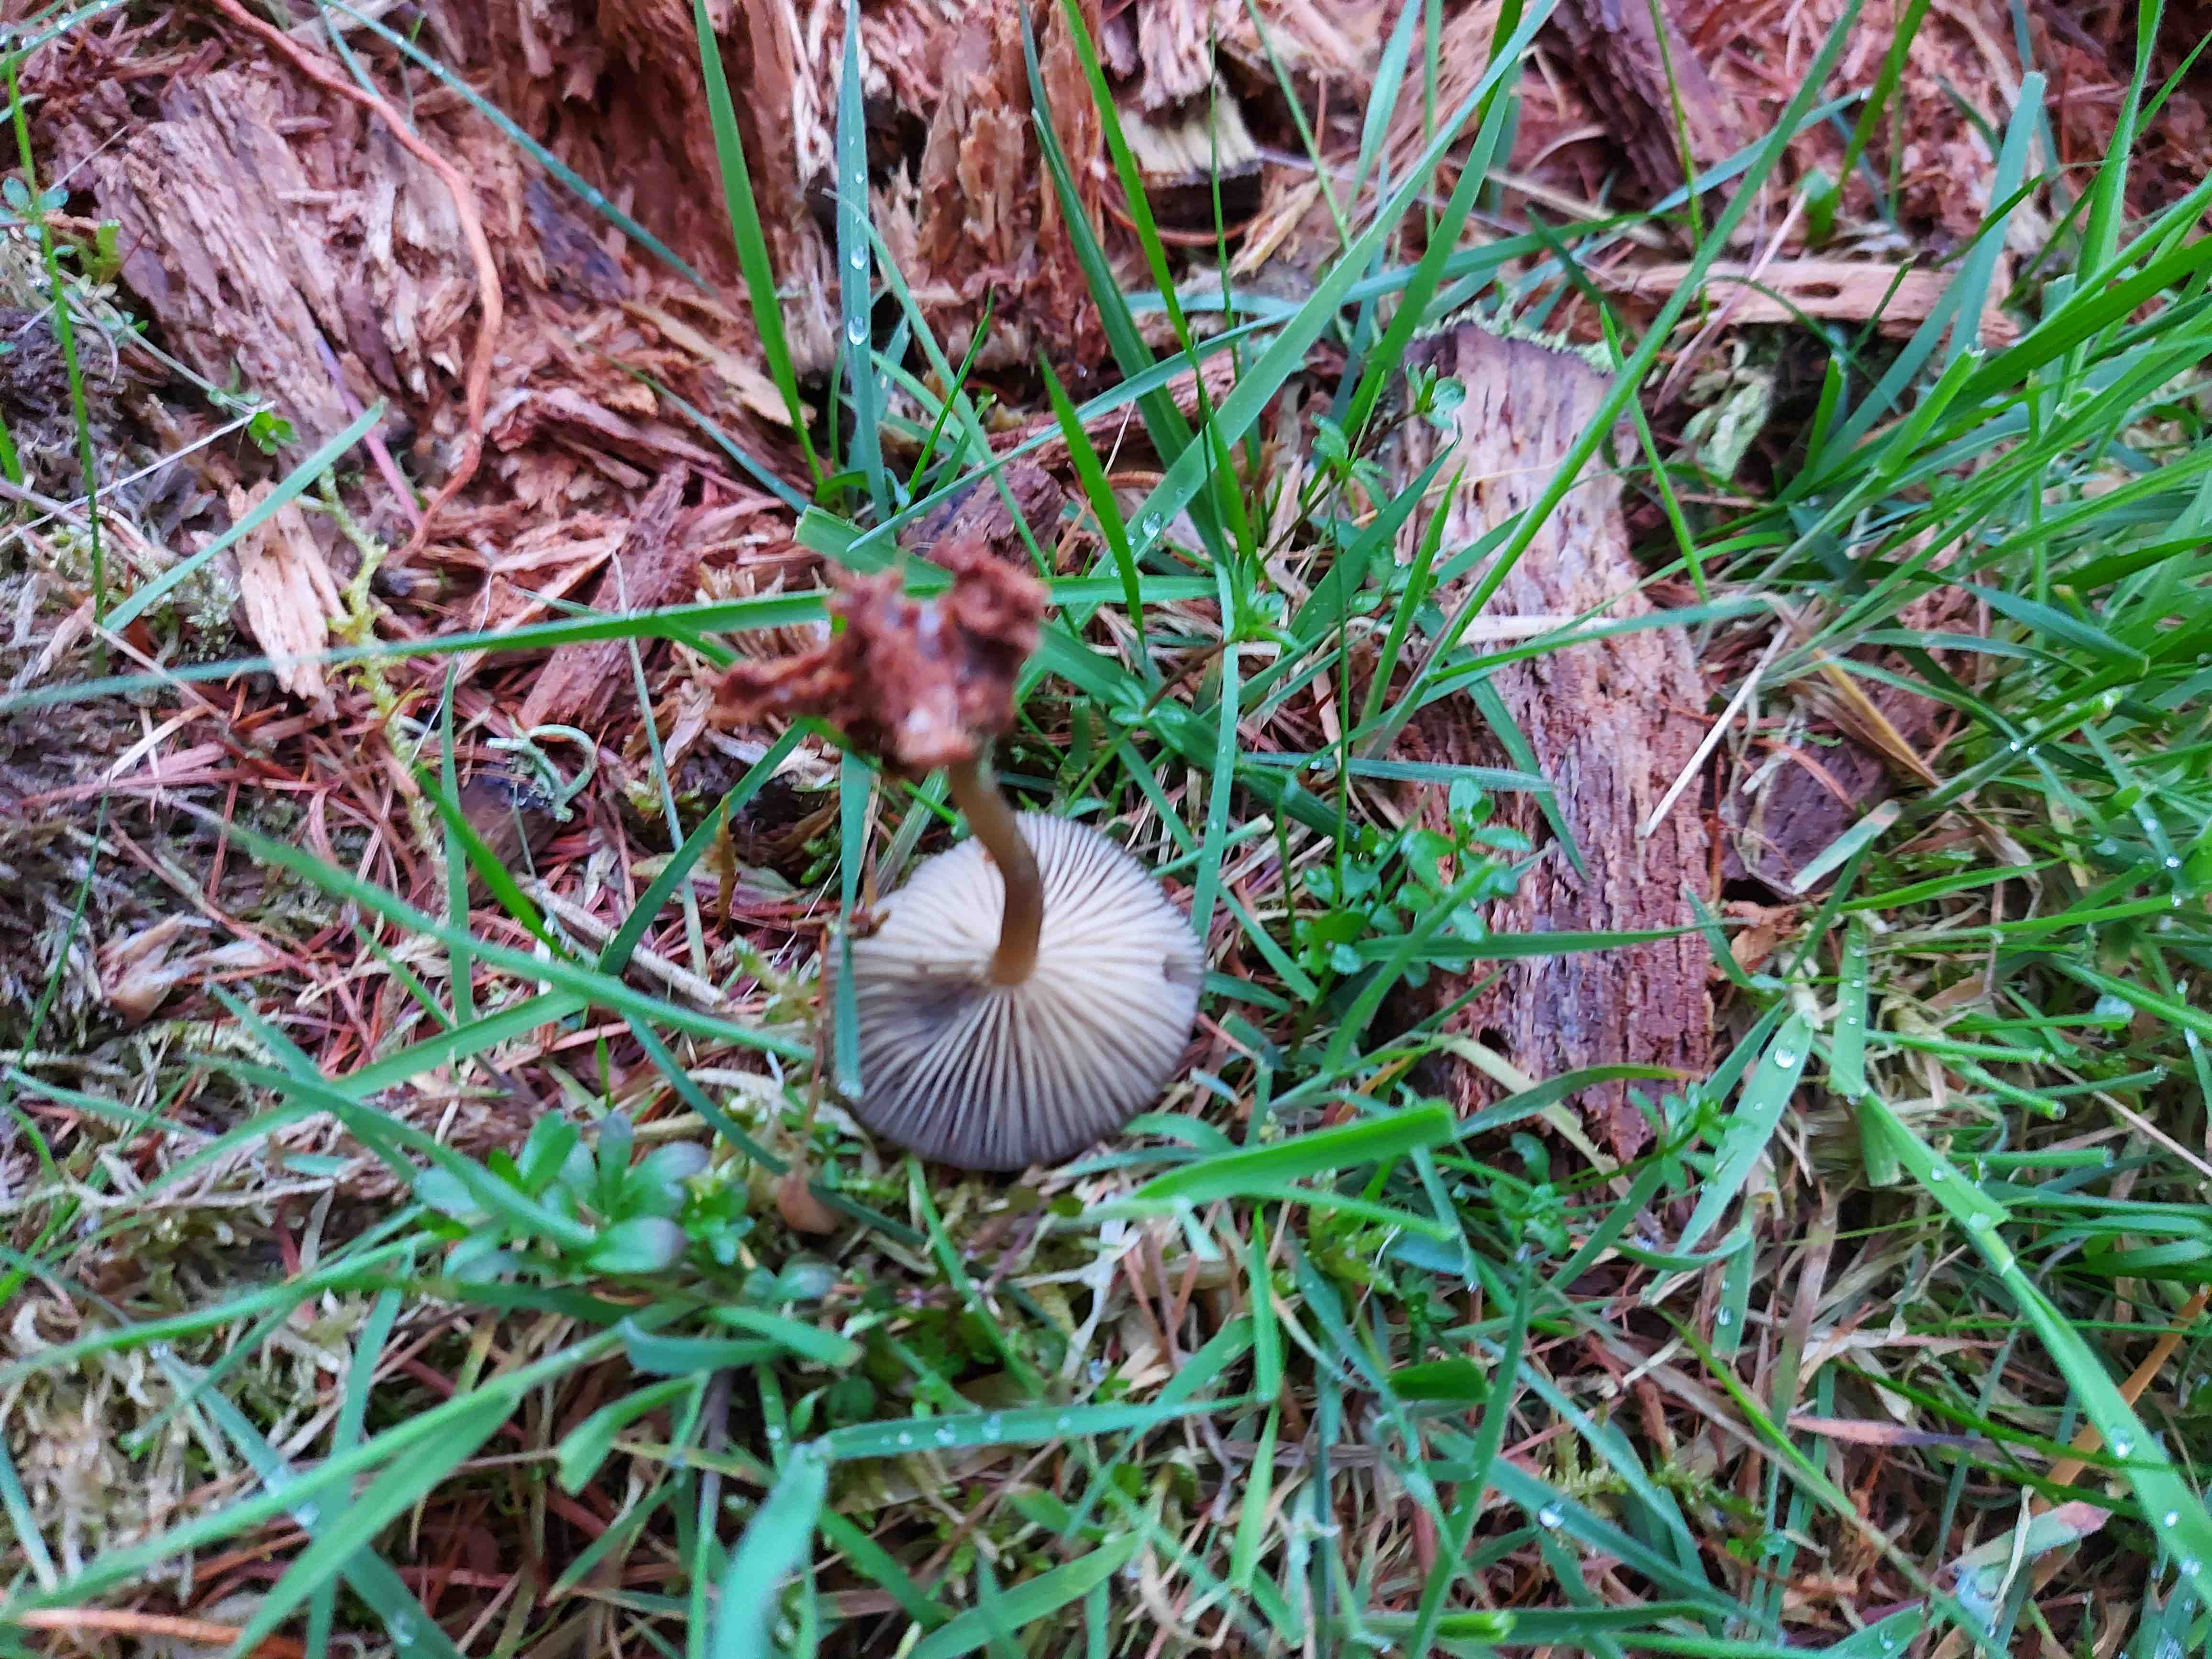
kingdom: Fungi
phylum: Basidiomycota
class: Agaricomycetes
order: Agaricales
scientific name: Agaricales
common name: champignonordenen
